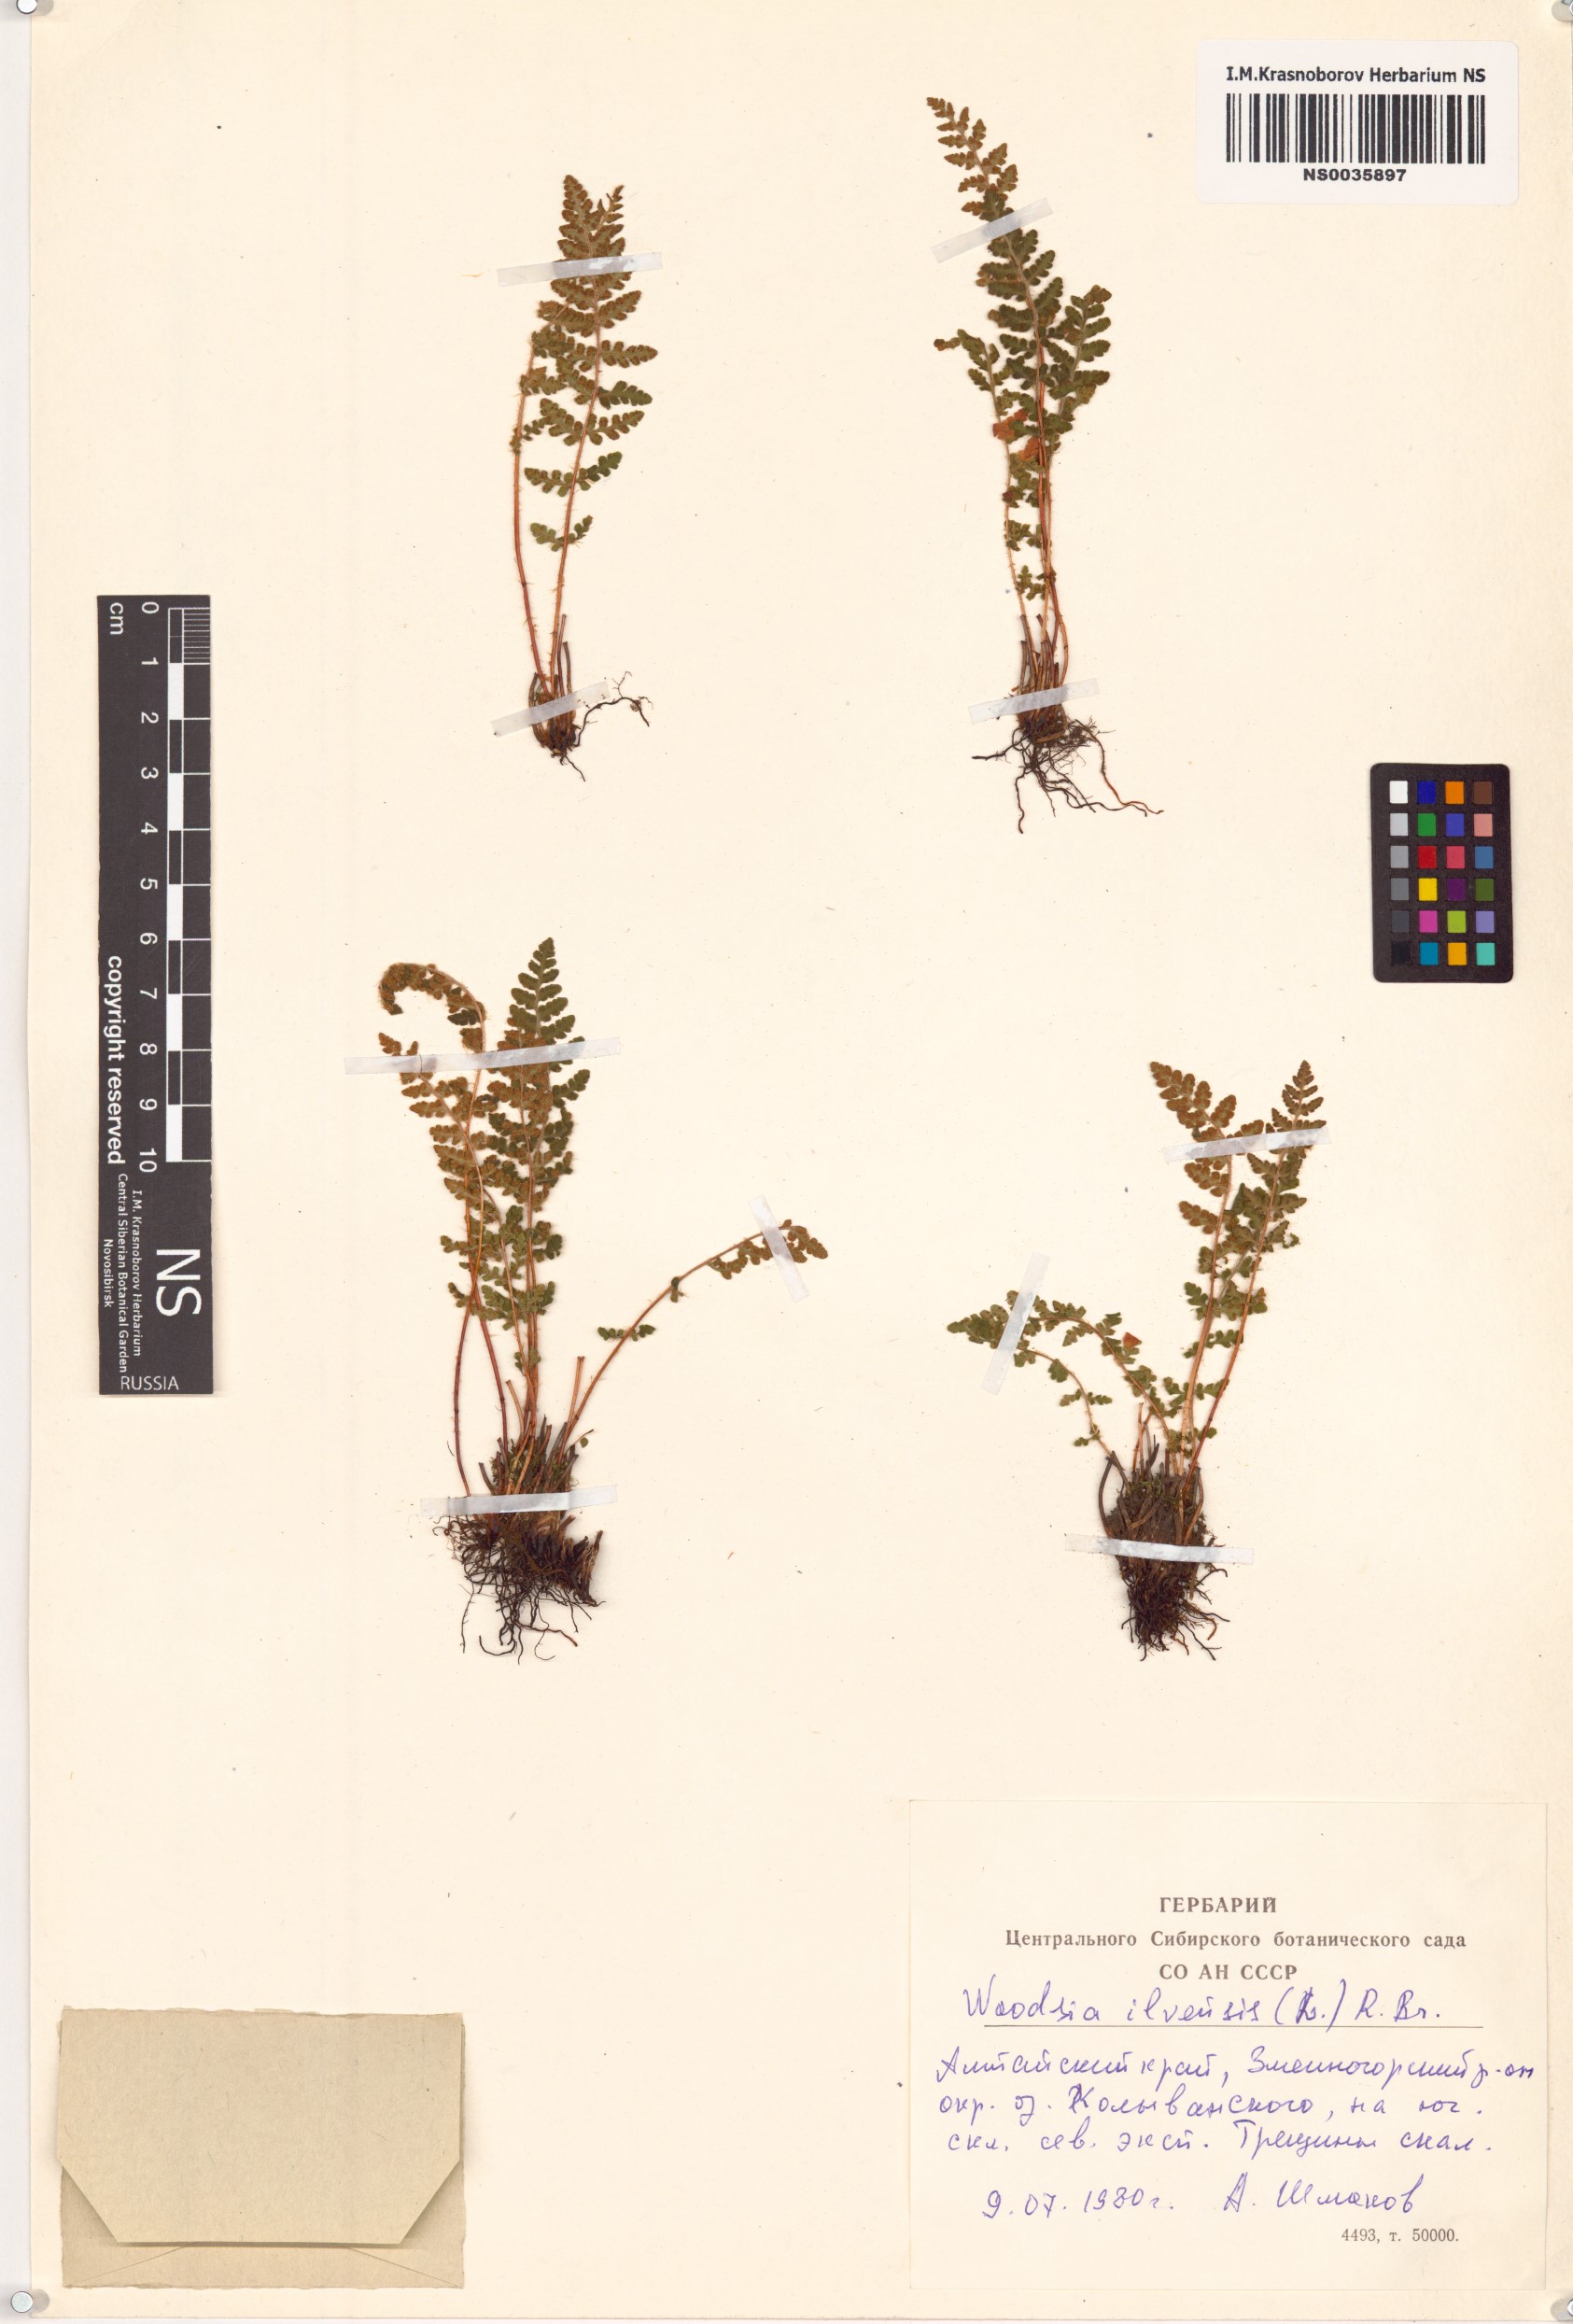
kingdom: Plantae
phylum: Tracheophyta
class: Polypodiopsida
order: Polypodiales
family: Woodsiaceae
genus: Woodsia
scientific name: Woodsia ilvensis
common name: Fragrant woodsia
